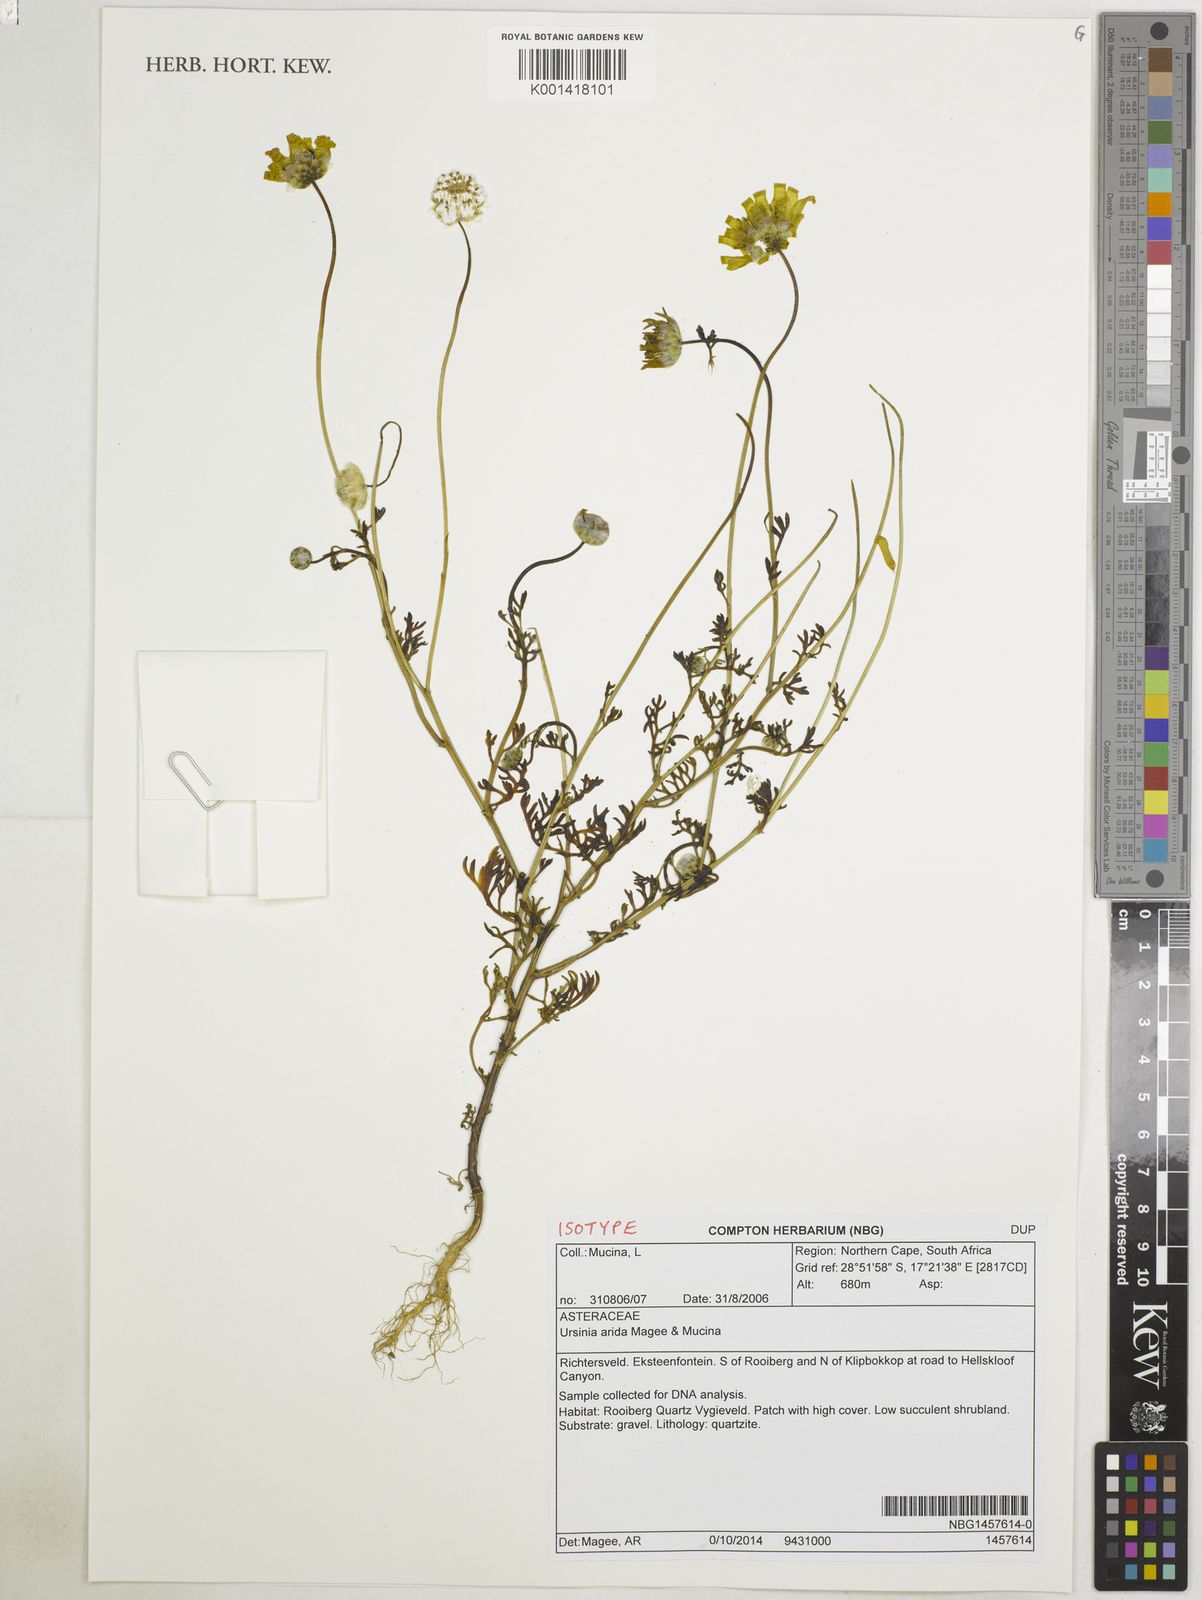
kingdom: Plantae
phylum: Tracheophyta
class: Magnoliopsida
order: Asterales
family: Asteraceae
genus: Ursinia
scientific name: Ursinia arida
